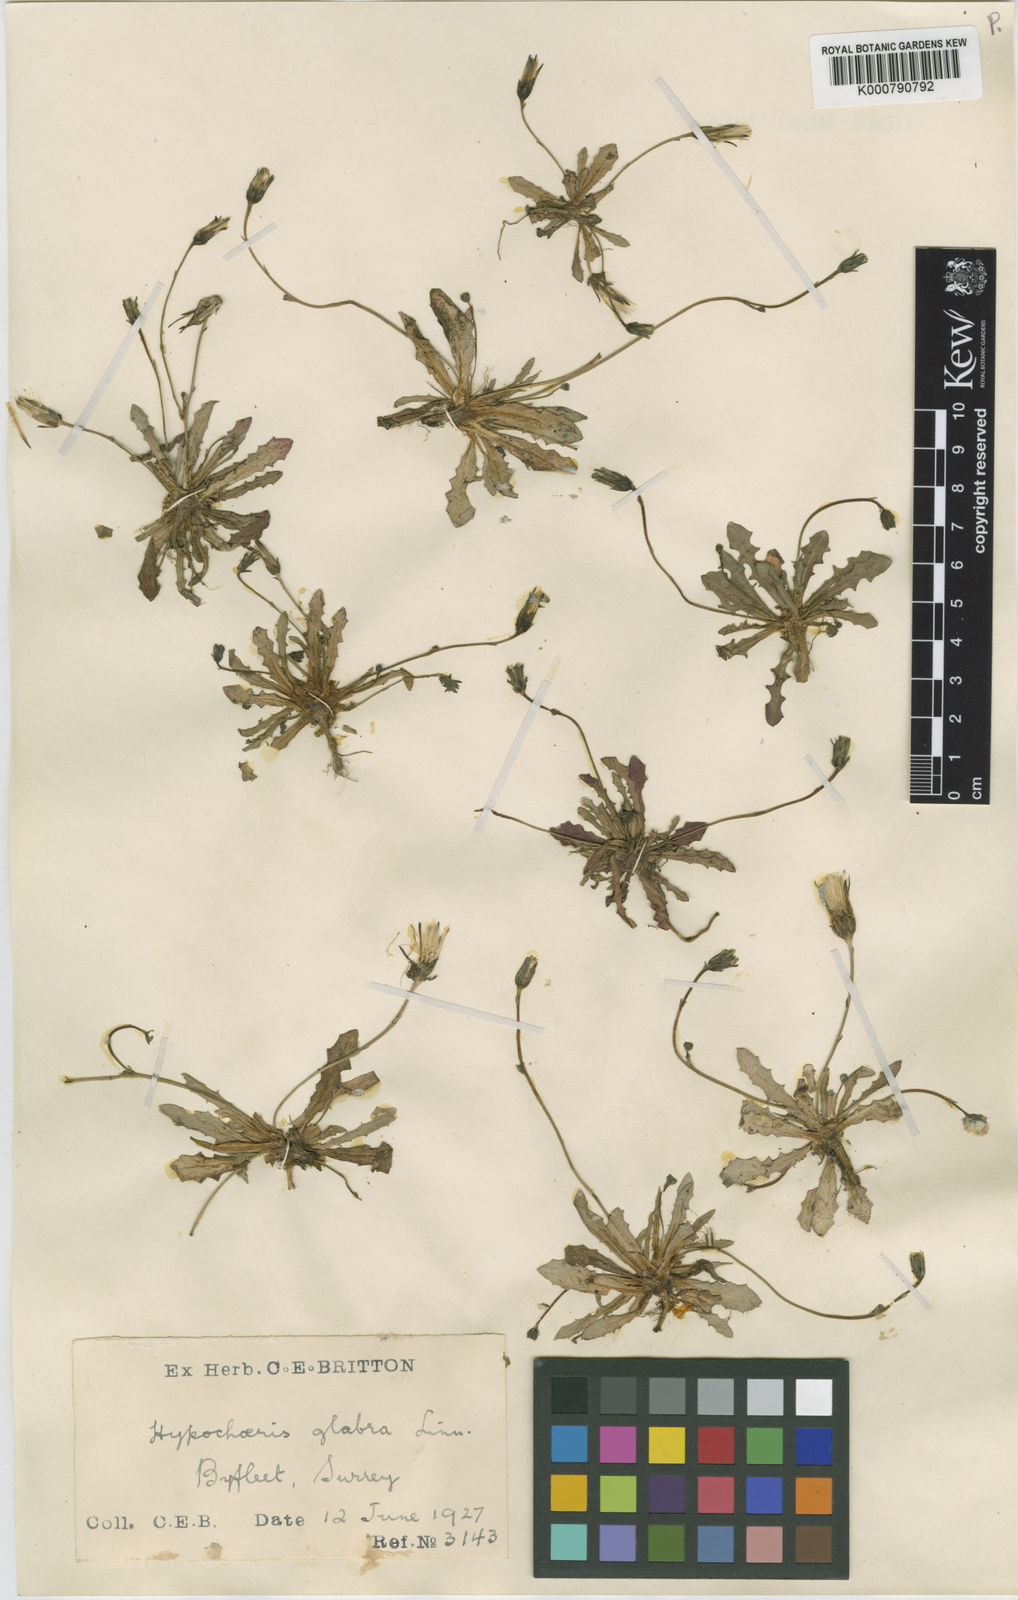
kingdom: Plantae
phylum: Tracheophyta
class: Magnoliopsida
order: Asterales
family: Asteraceae
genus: Hypochaeris
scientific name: Hypochaeris glabra
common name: Smooth catsear
